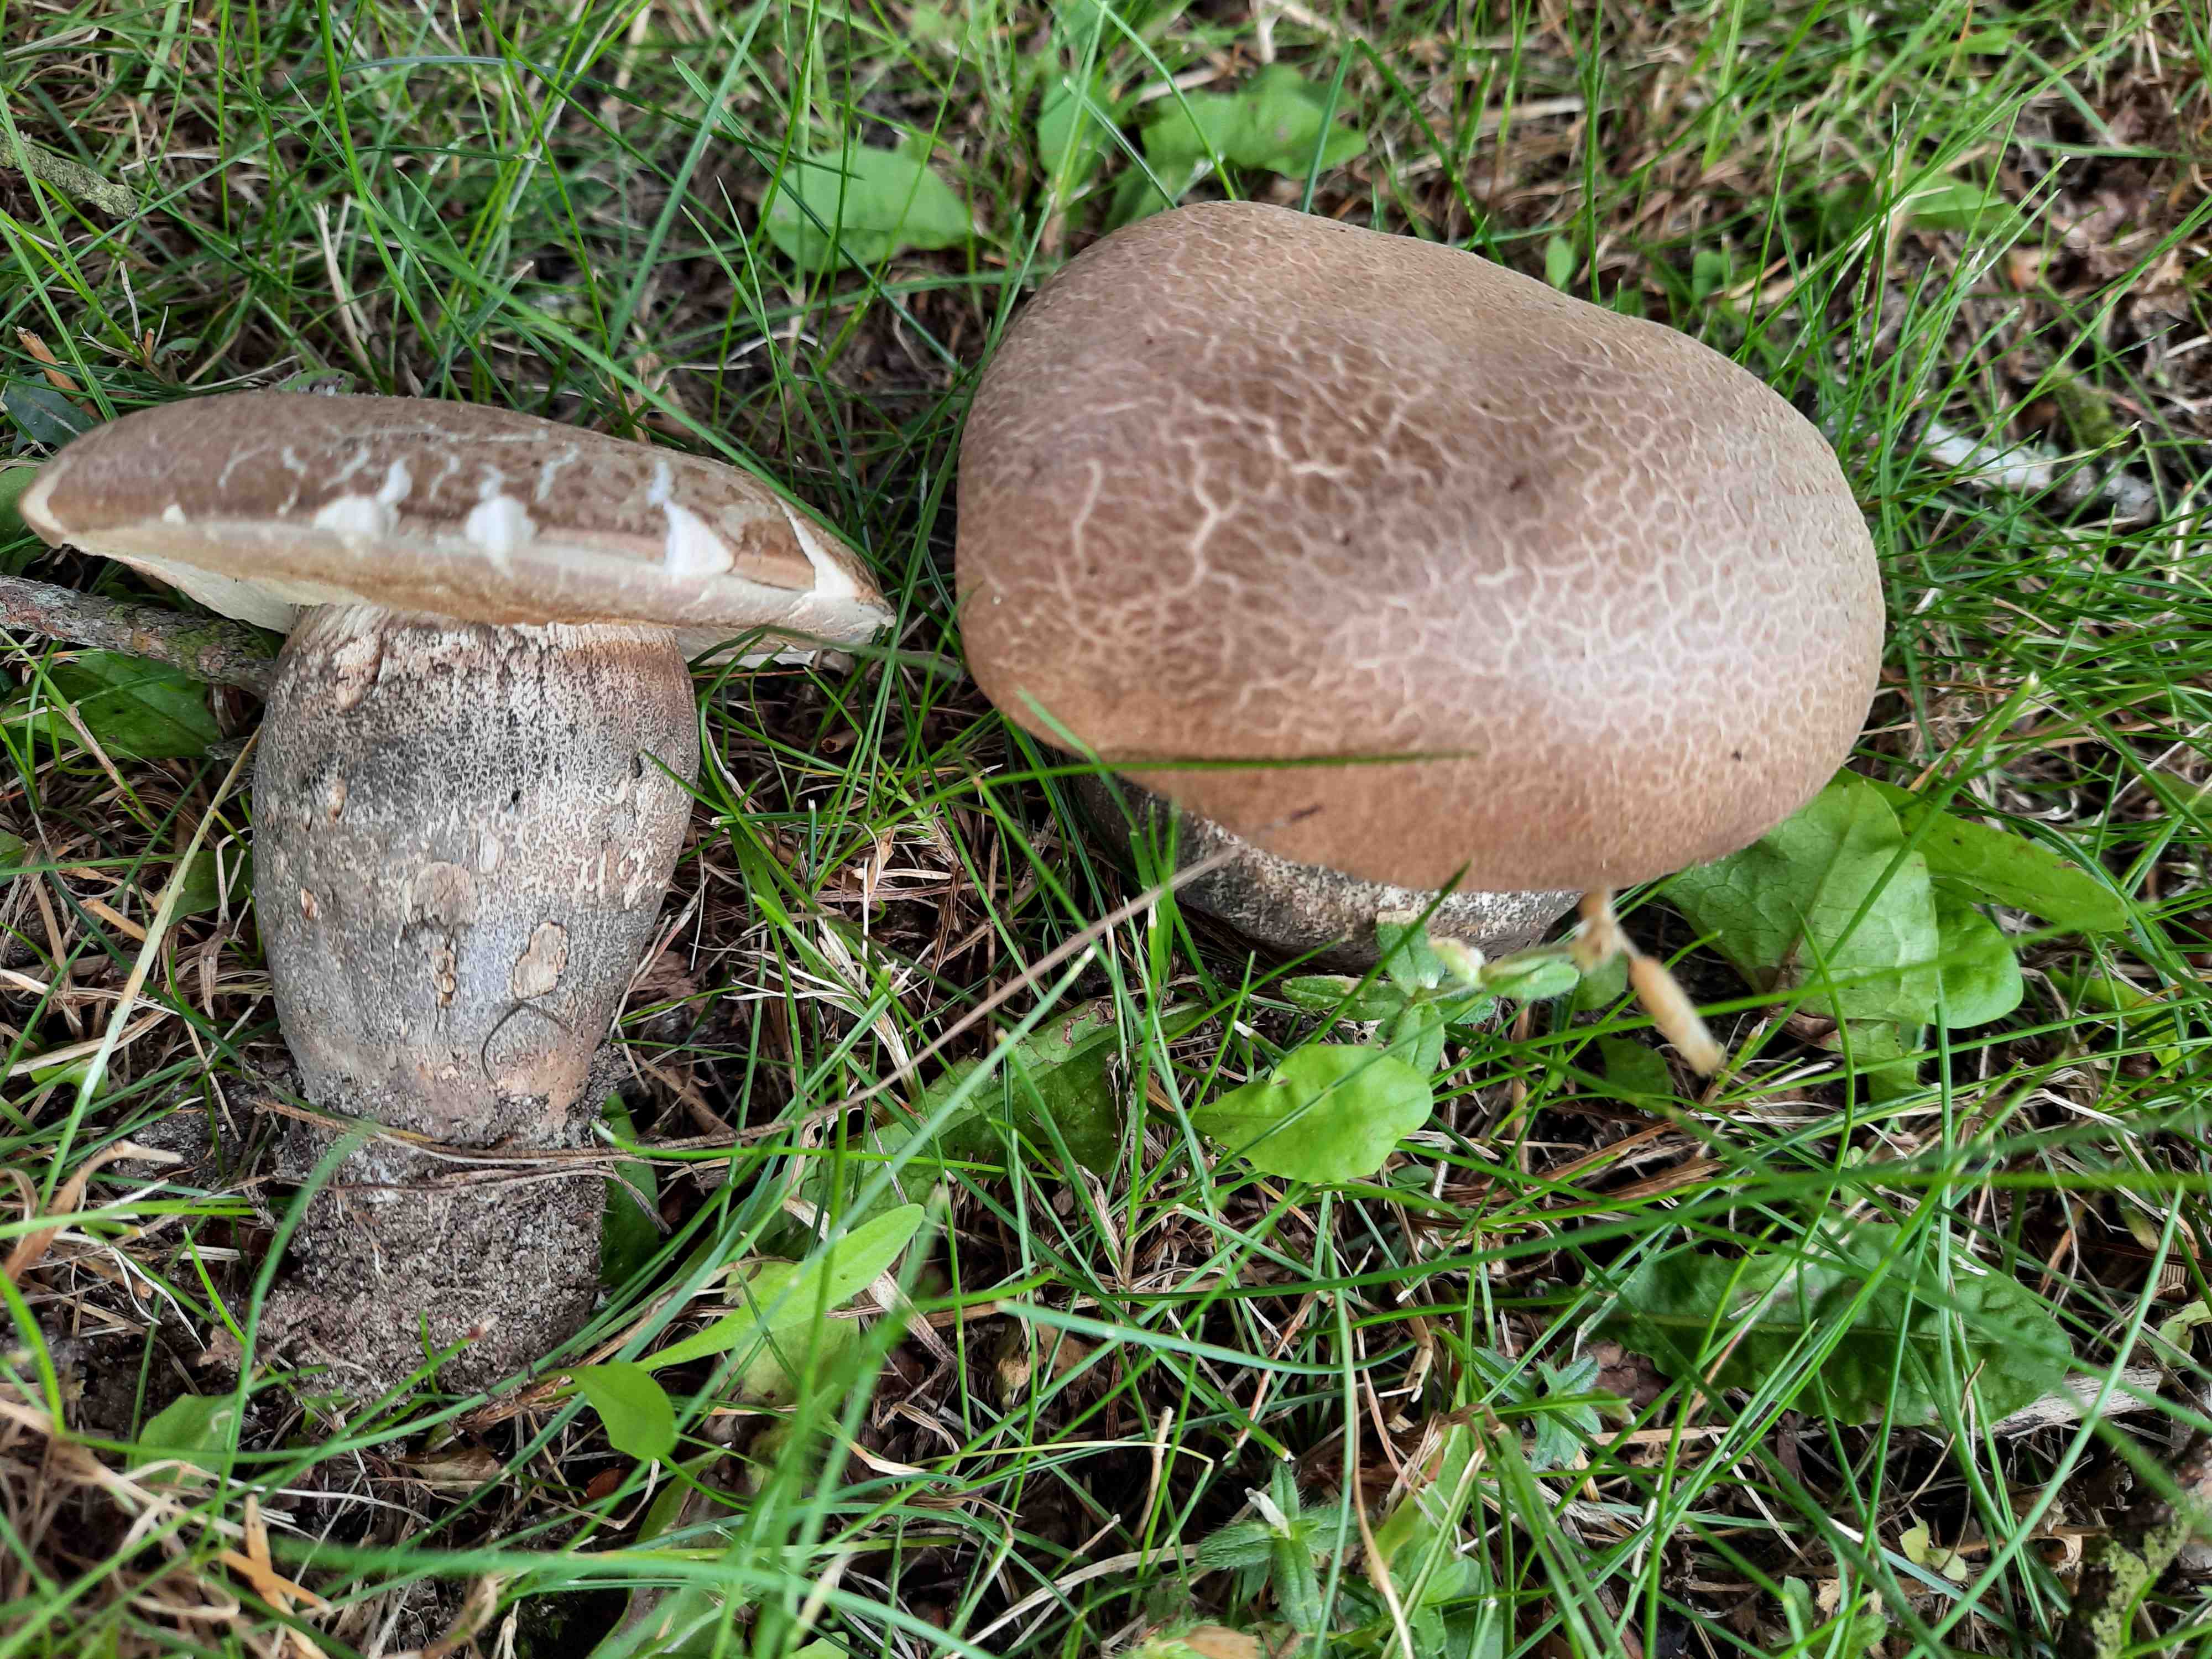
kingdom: Fungi
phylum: Basidiomycota
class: Agaricomycetes
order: Boletales
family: Boletaceae
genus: Leccinum
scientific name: Leccinum duriusculum
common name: poppel-skælrørhat
